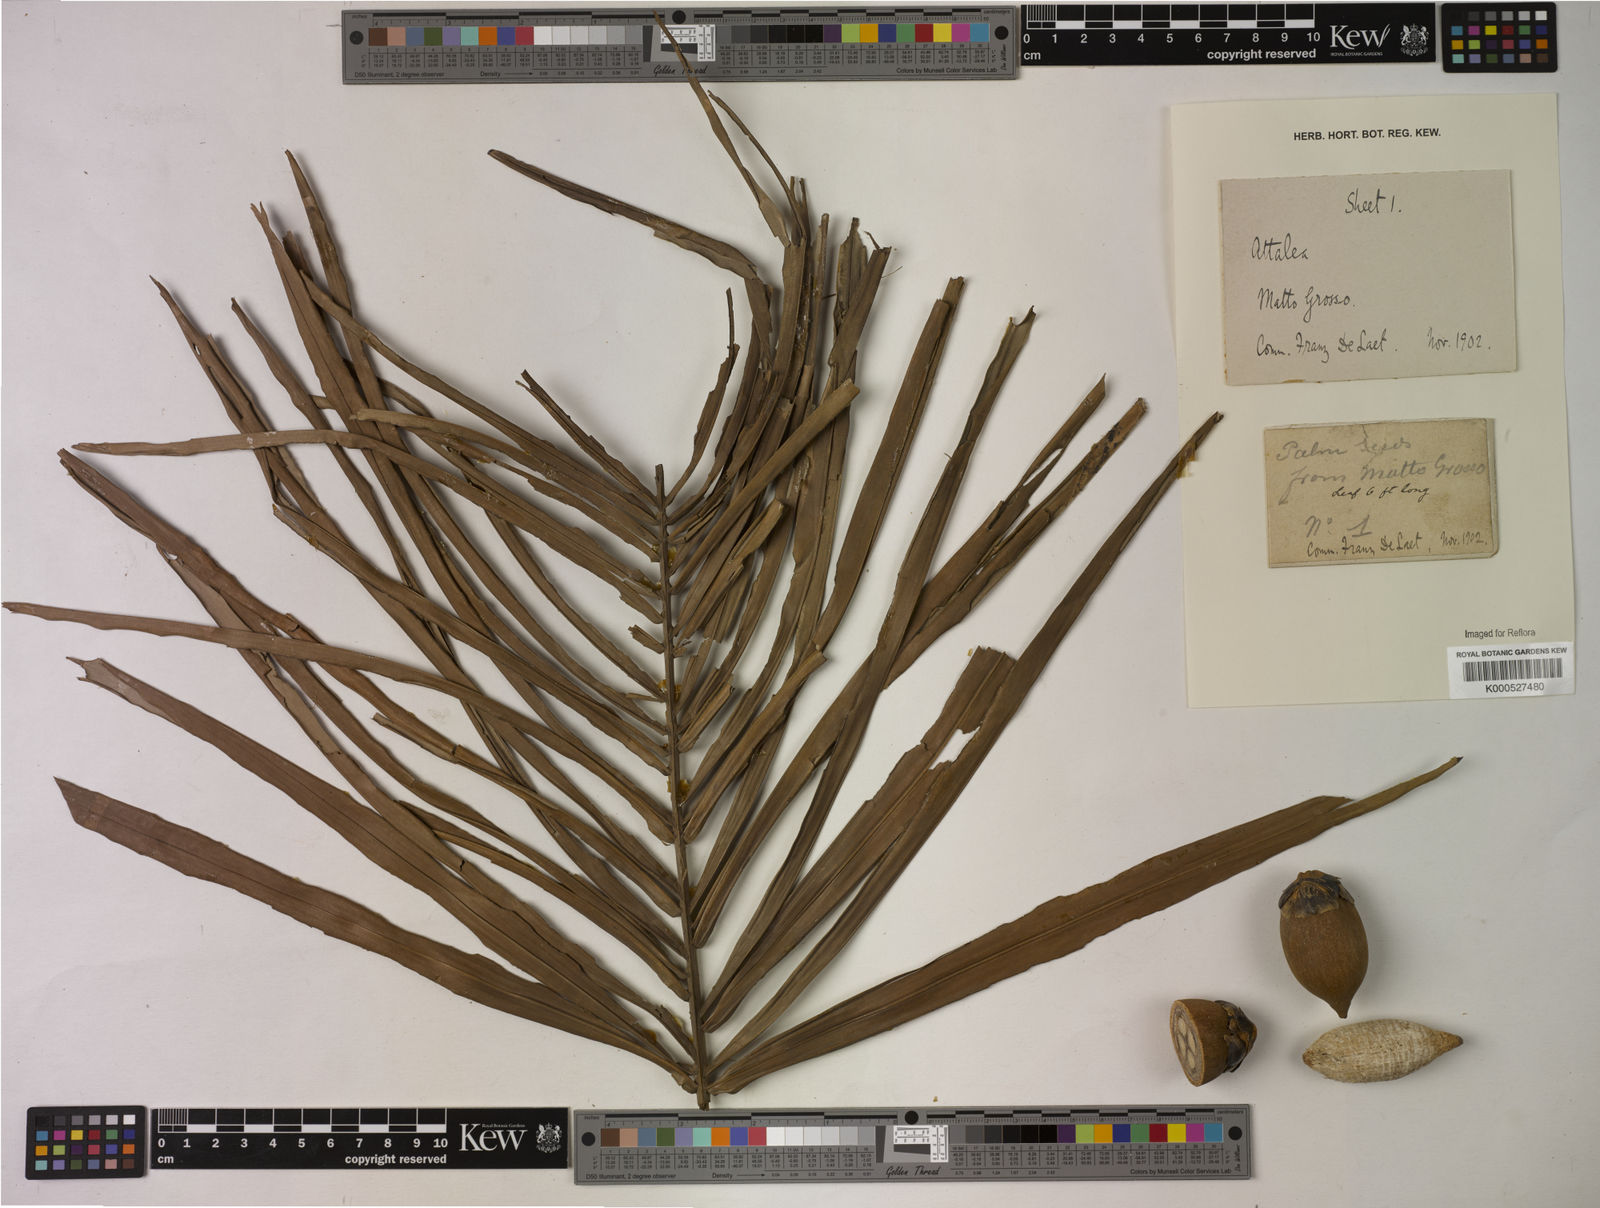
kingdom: Plantae
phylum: Tracheophyta
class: Liliopsida
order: Arecales
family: Arecaceae
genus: Attalea
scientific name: Attalea
